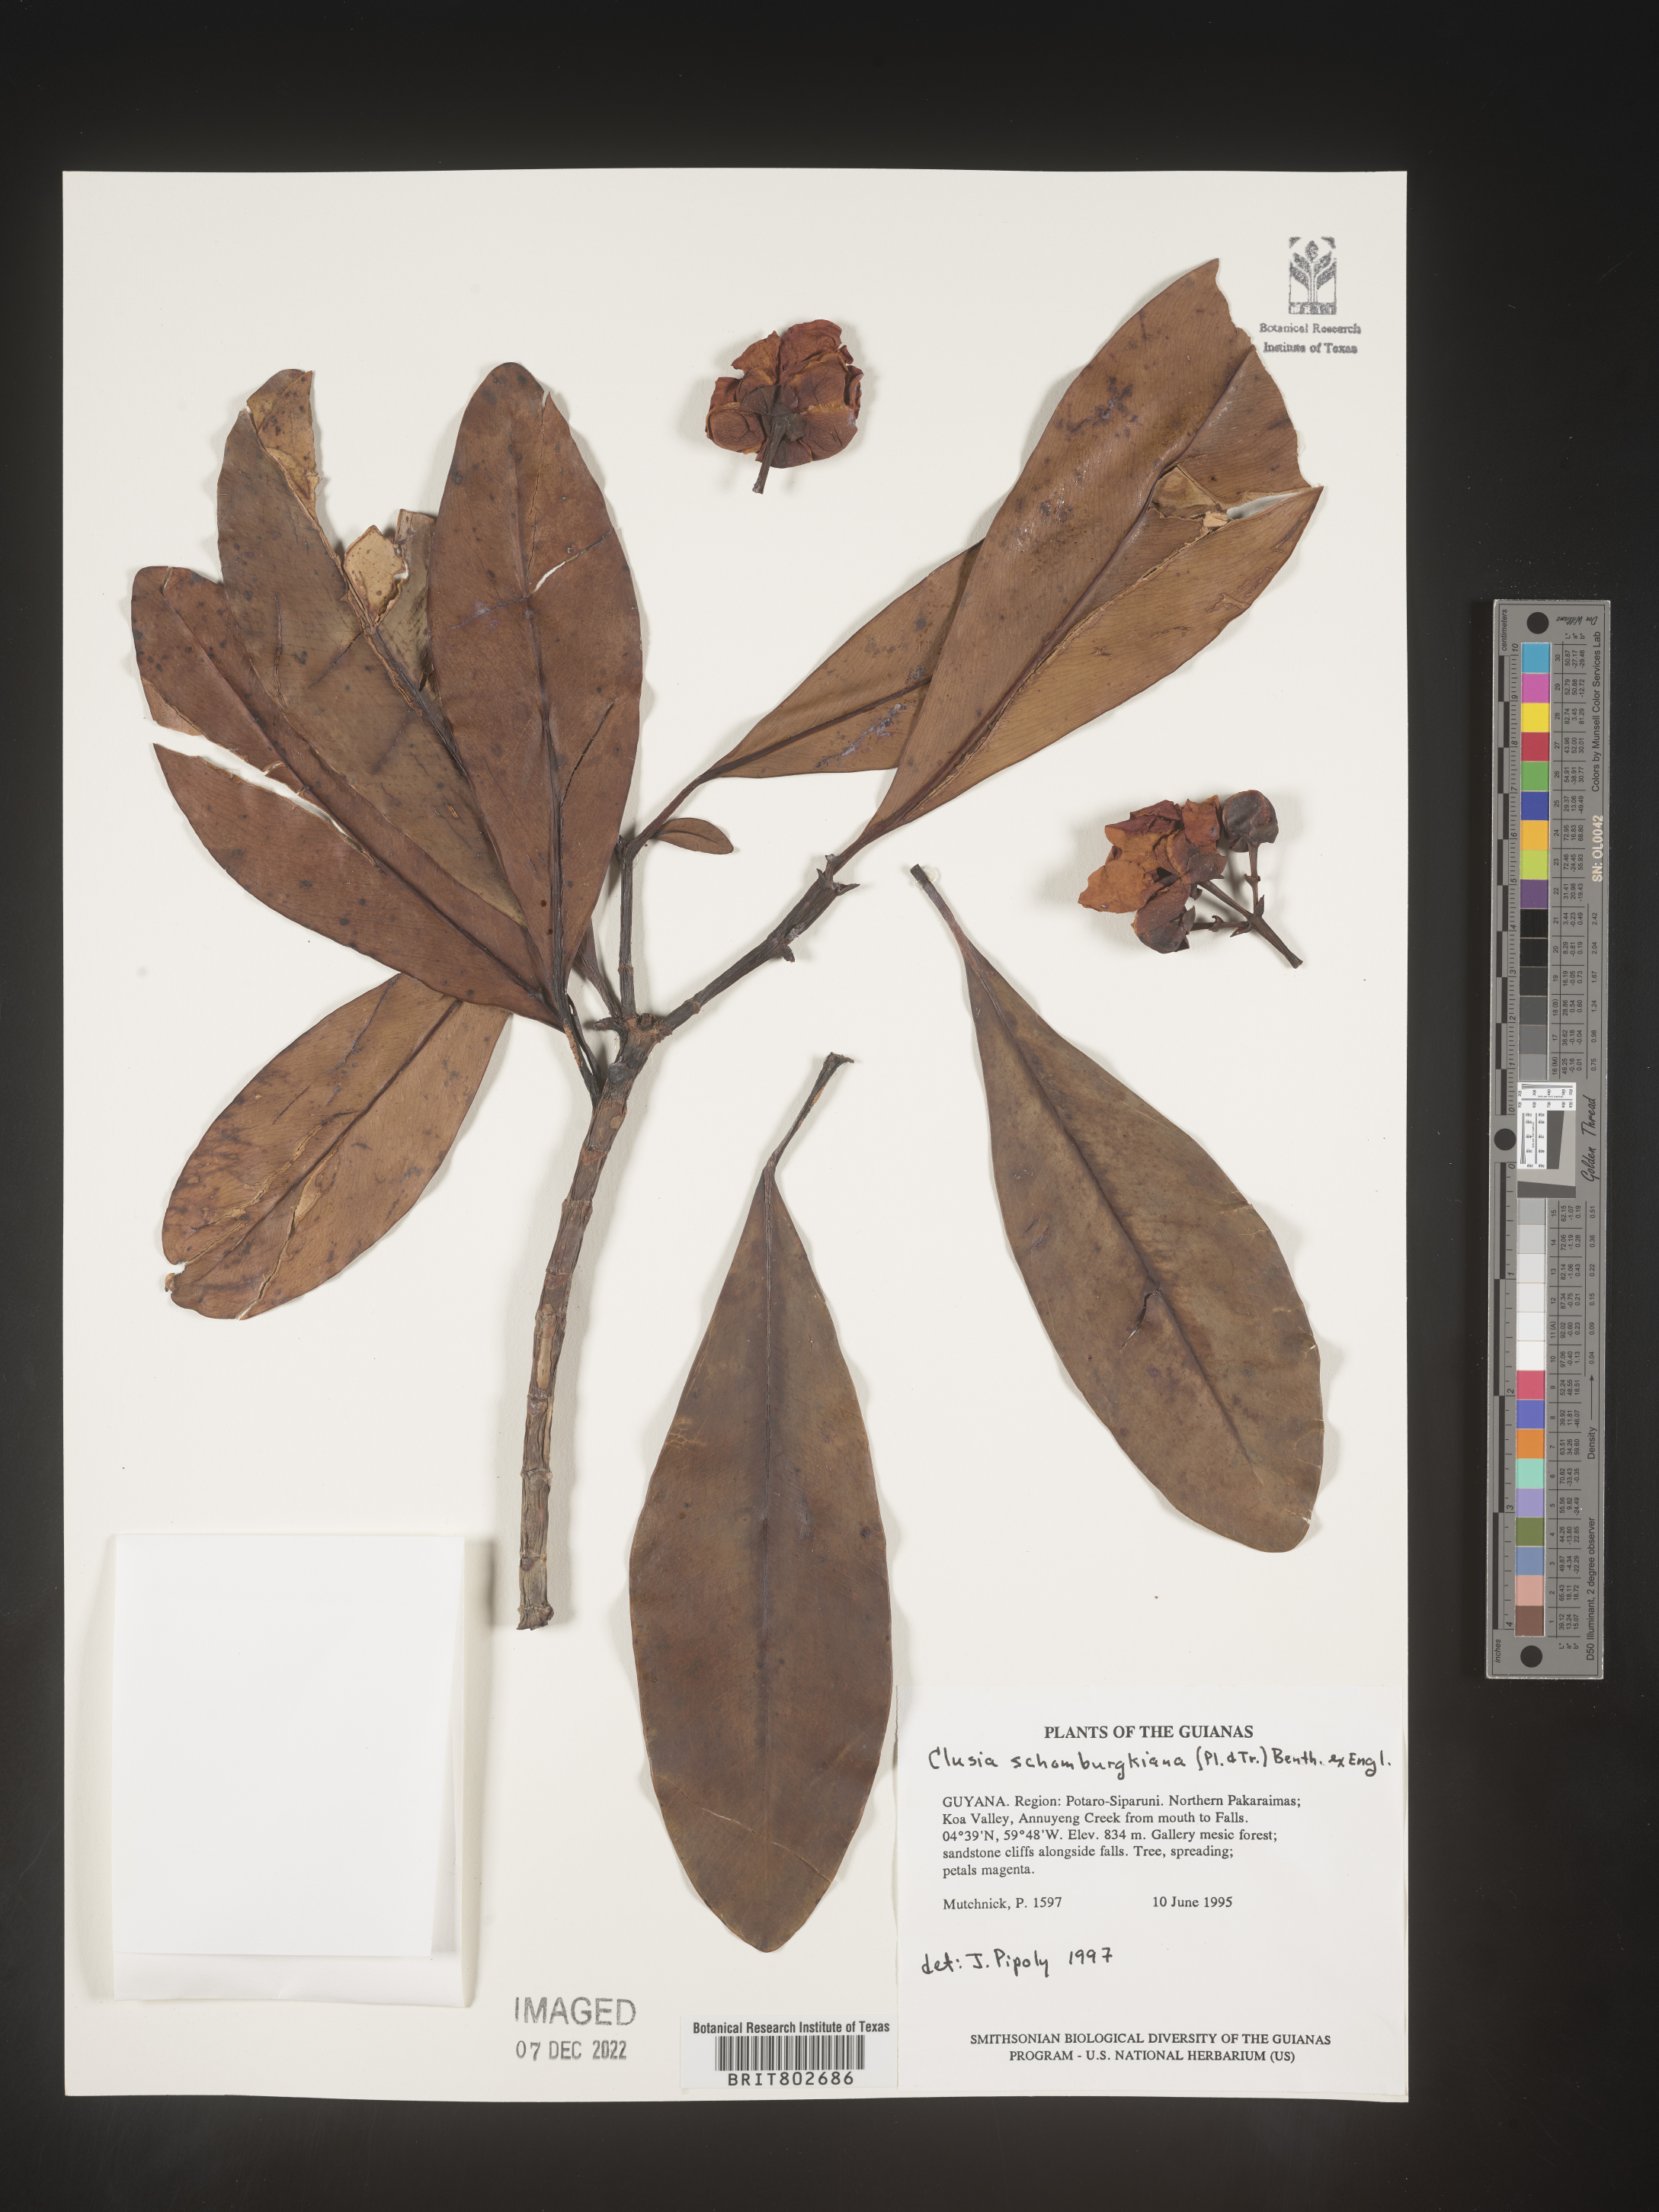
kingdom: Plantae
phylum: Tracheophyta
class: Magnoliopsida
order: Malpighiales
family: Clusiaceae
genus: Clusia
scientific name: Clusia schomburgkiana
